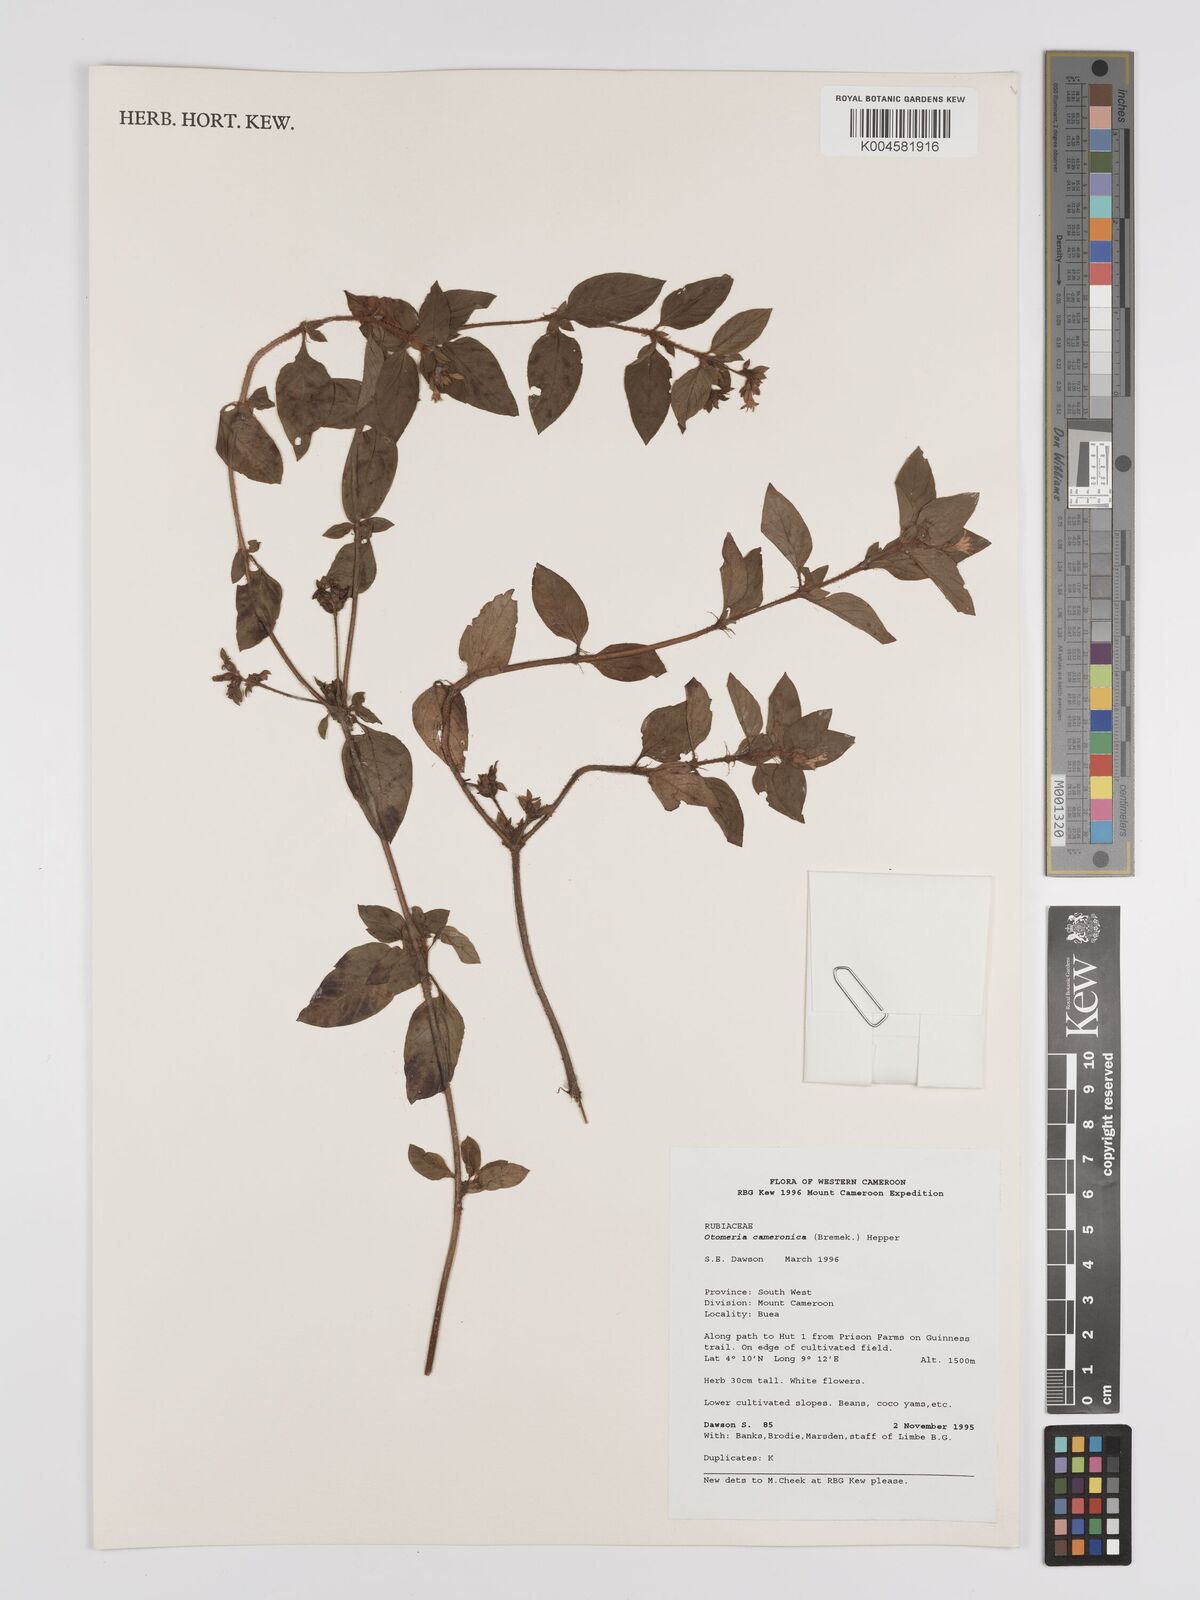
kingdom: Plantae
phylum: Tracheophyta
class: Magnoliopsida
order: Gentianales
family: Rubiaceae
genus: Otomeria
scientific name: Otomeria cameronica
